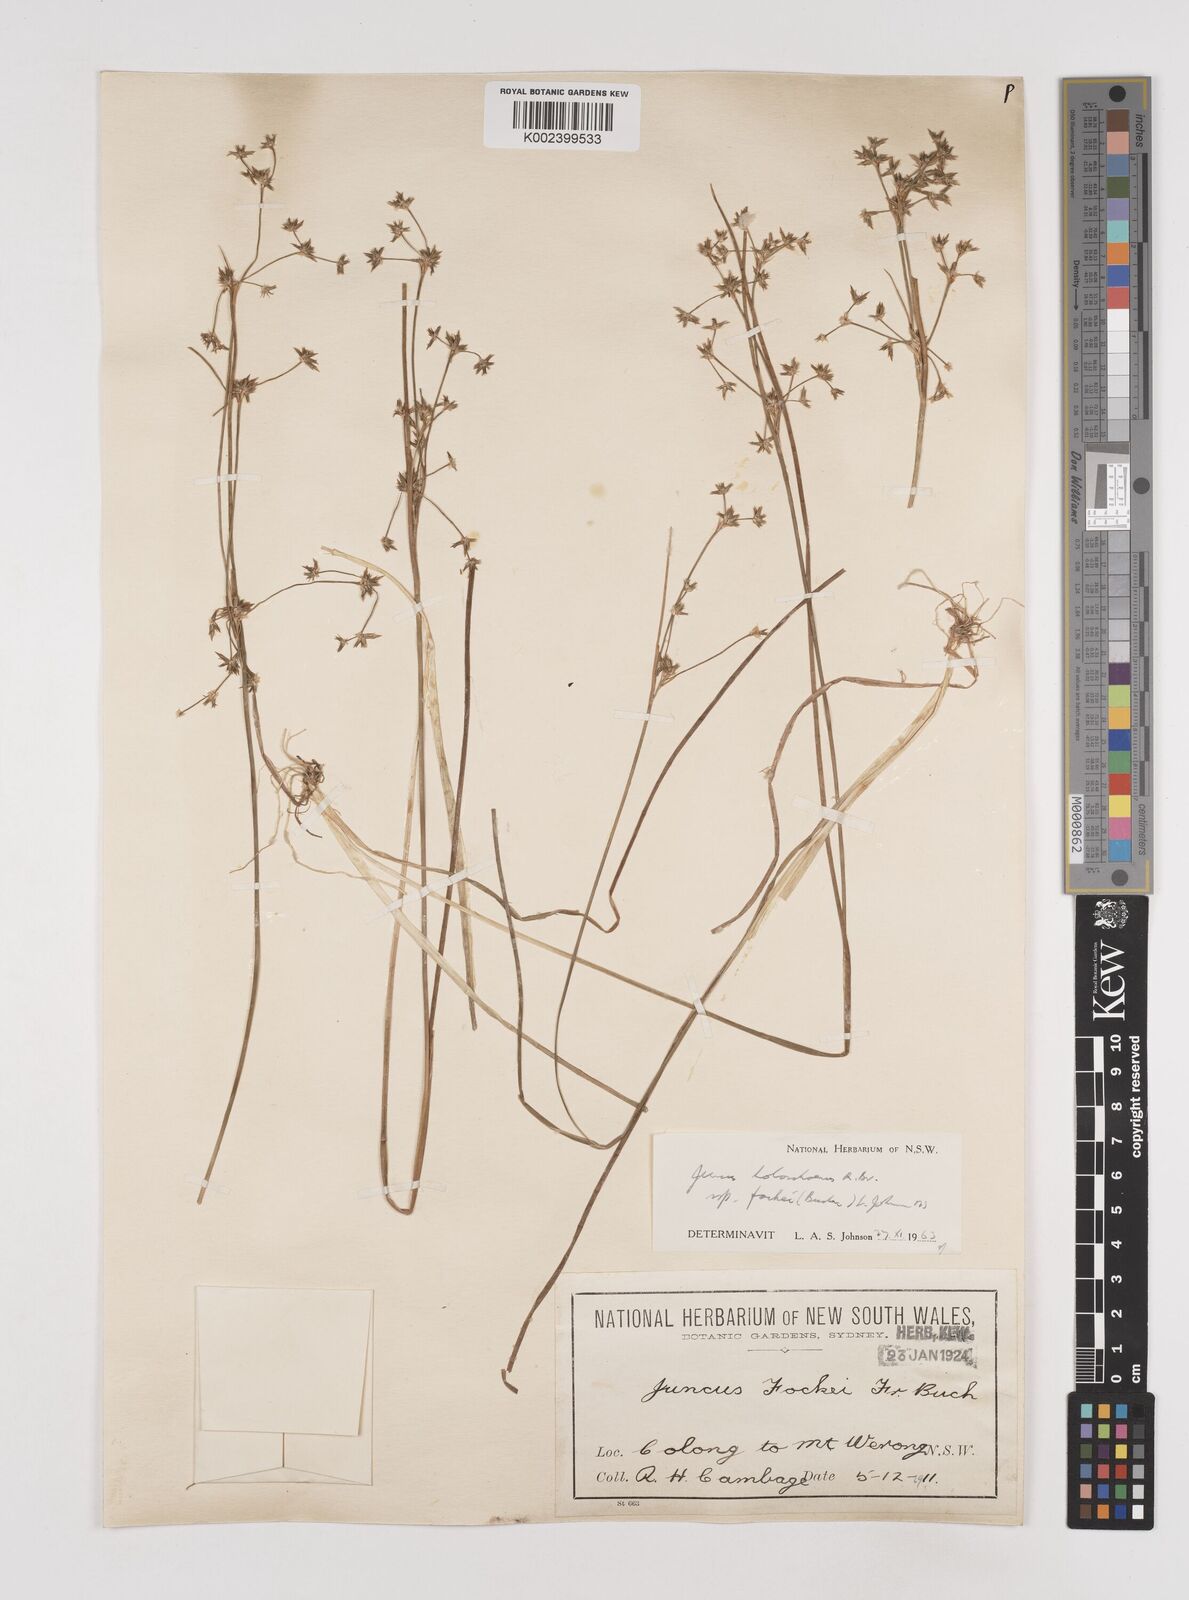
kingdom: Plantae
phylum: Tracheophyta
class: Liliopsida
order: Poales
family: Juncaceae
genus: Juncus
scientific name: Juncus holoschoenus
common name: Joint-leaf rush
